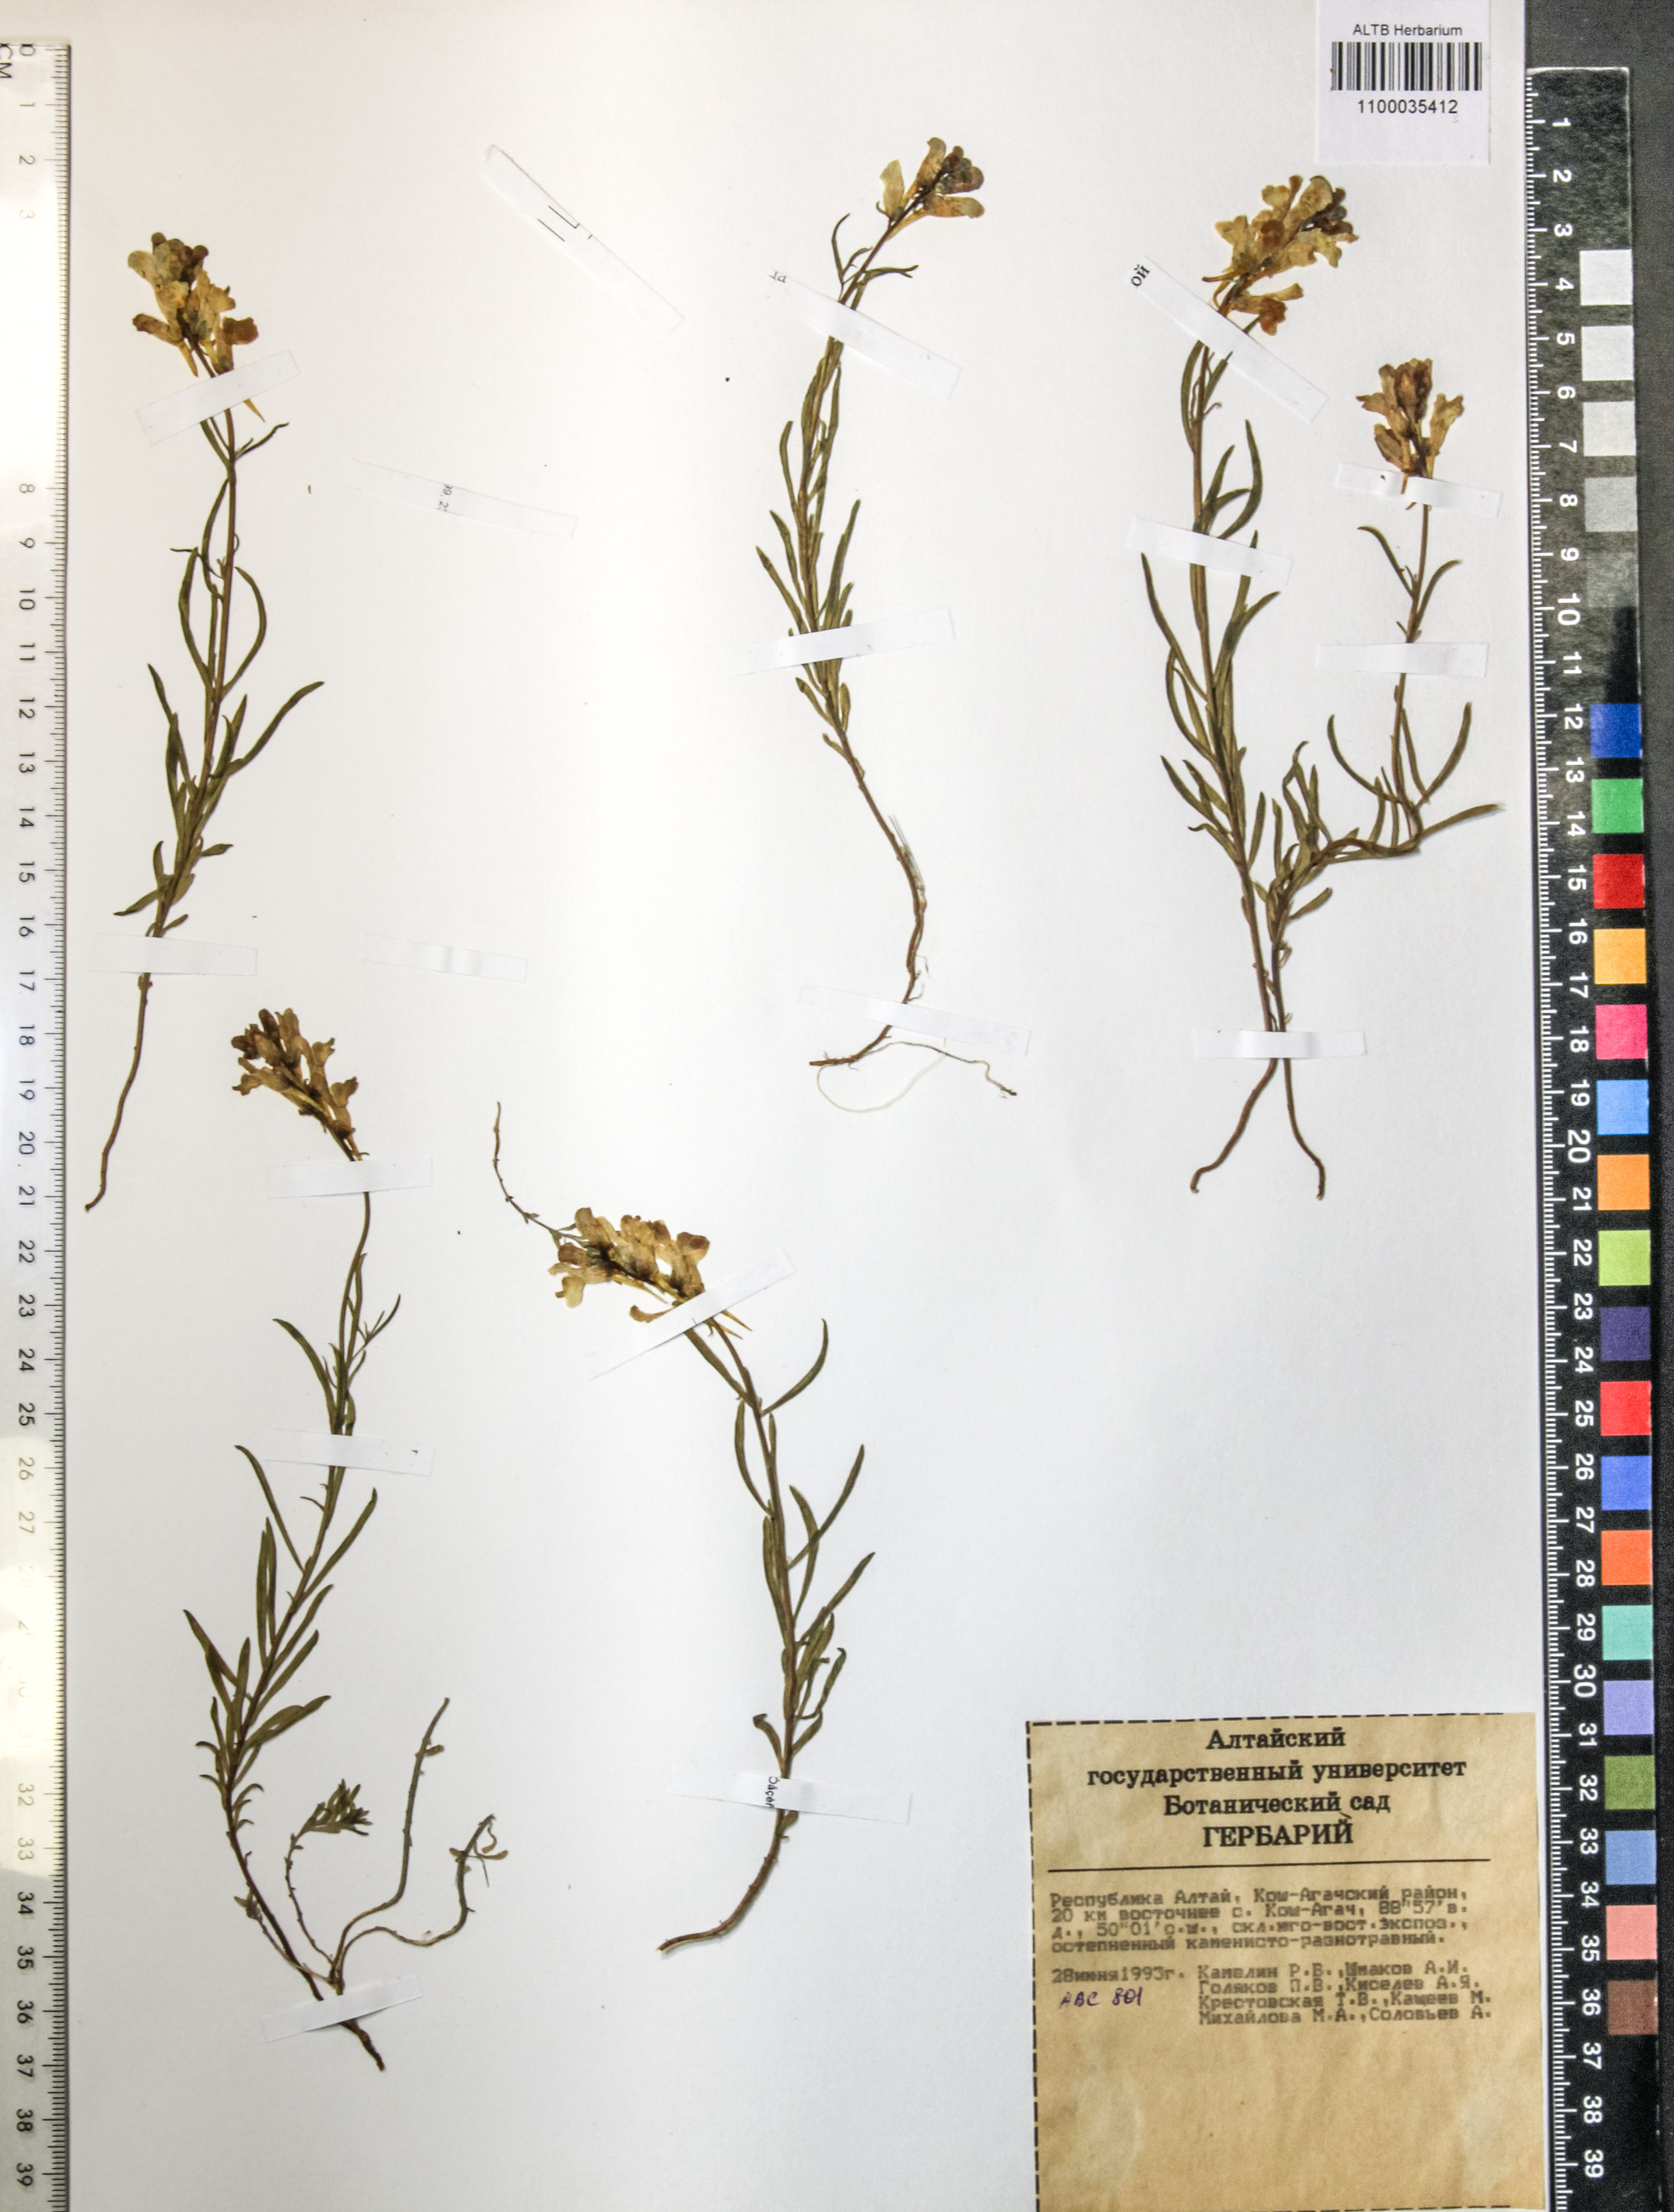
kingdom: Plantae
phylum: Tracheophyta
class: Magnoliopsida
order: Lamiales
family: Plantaginaceae
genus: Linaria
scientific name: Linaria caesia
